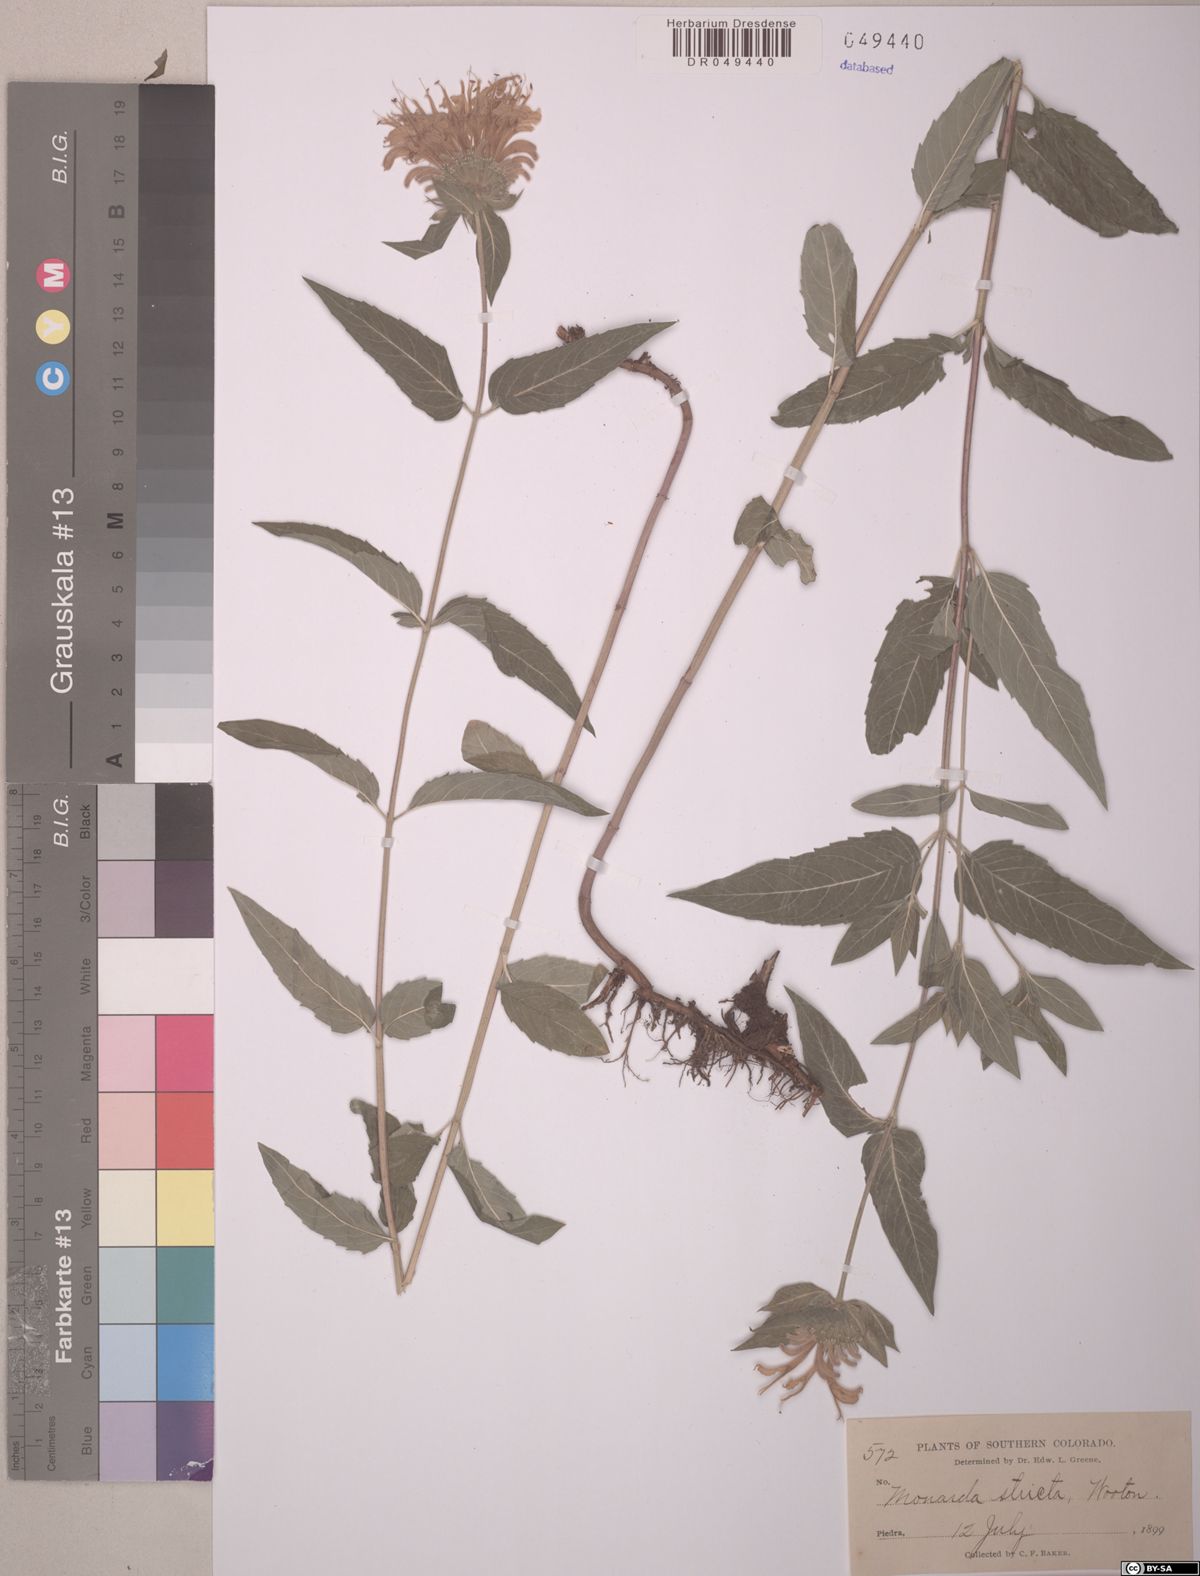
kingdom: Plantae
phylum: Tracheophyta
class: Magnoliopsida
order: Lamiales
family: Lamiaceae
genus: Monarda
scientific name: Monarda fistulosa
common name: Purple beebalm
